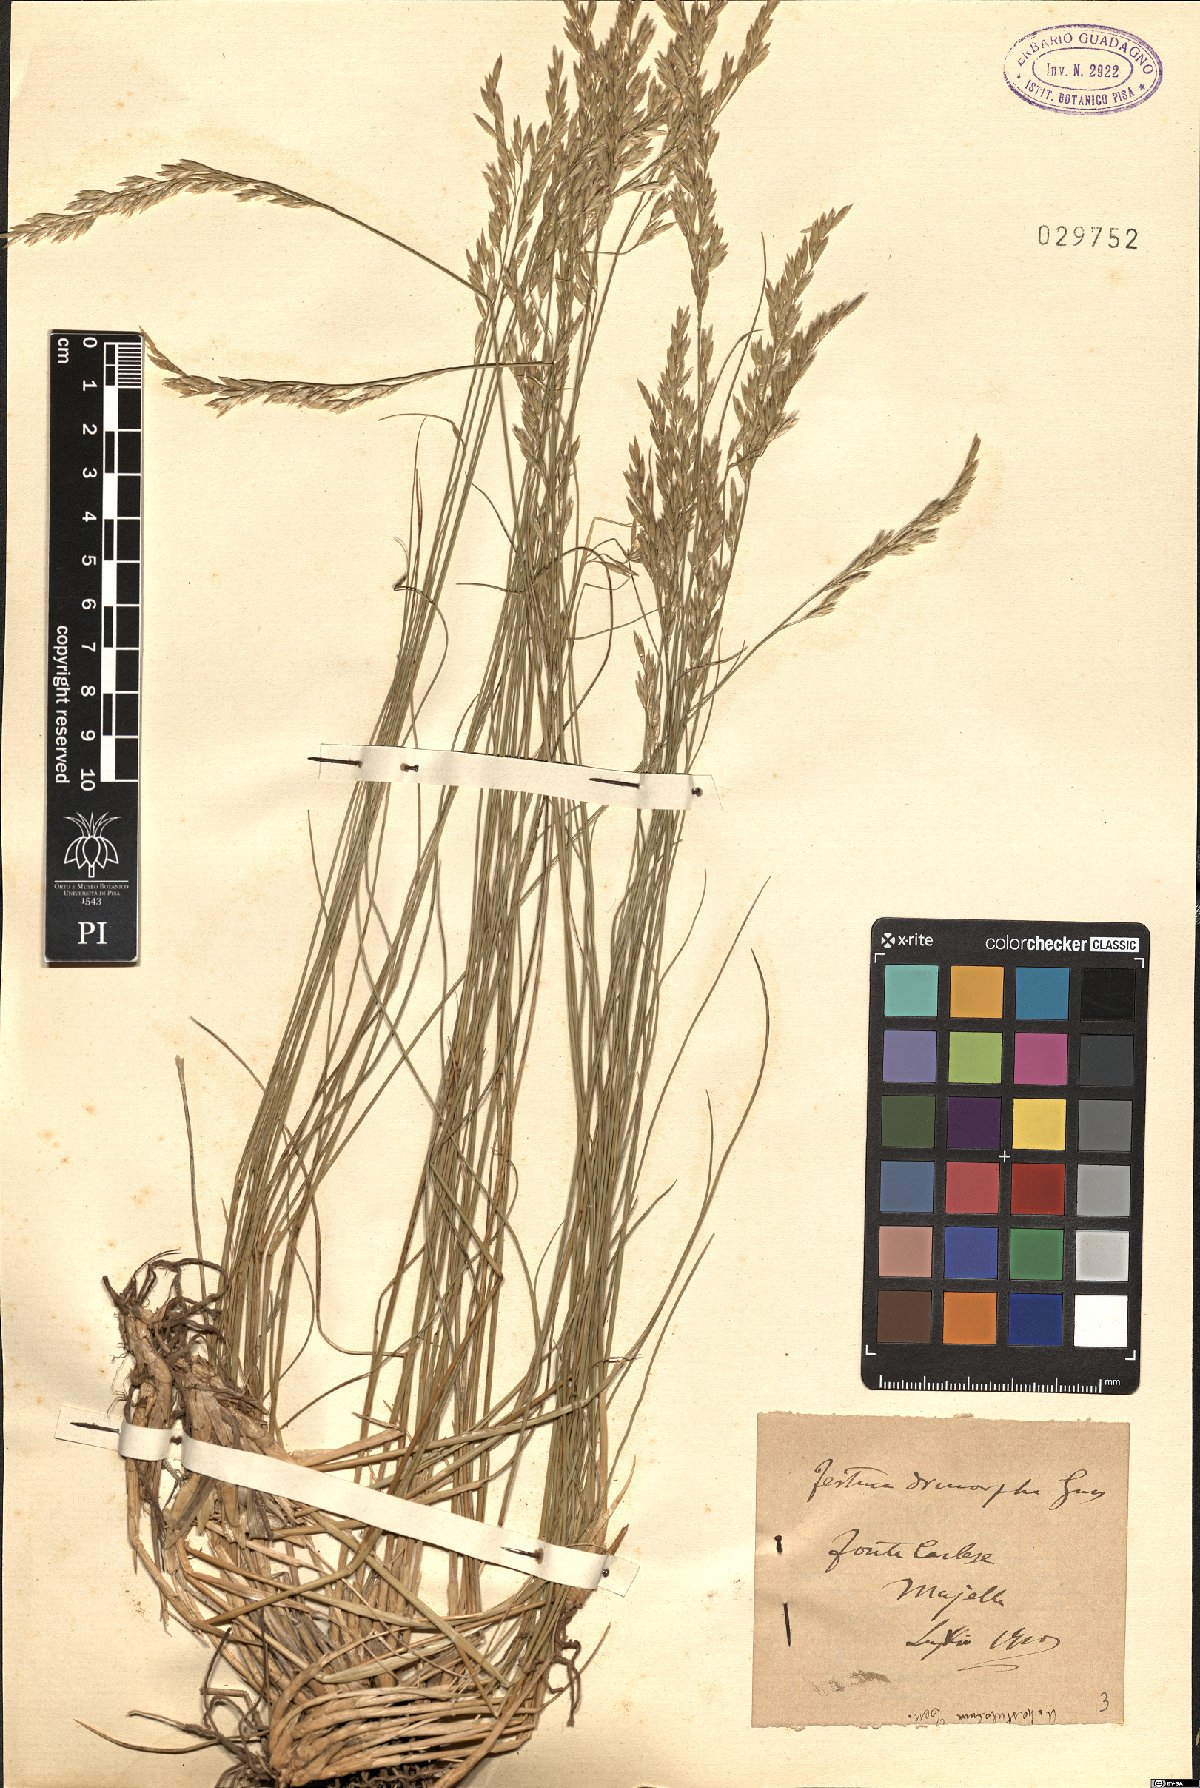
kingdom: Plantae
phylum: Tracheophyta
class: Liliopsida
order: Poales
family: Poaceae
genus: Festuca
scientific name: Festuca dimorpha
